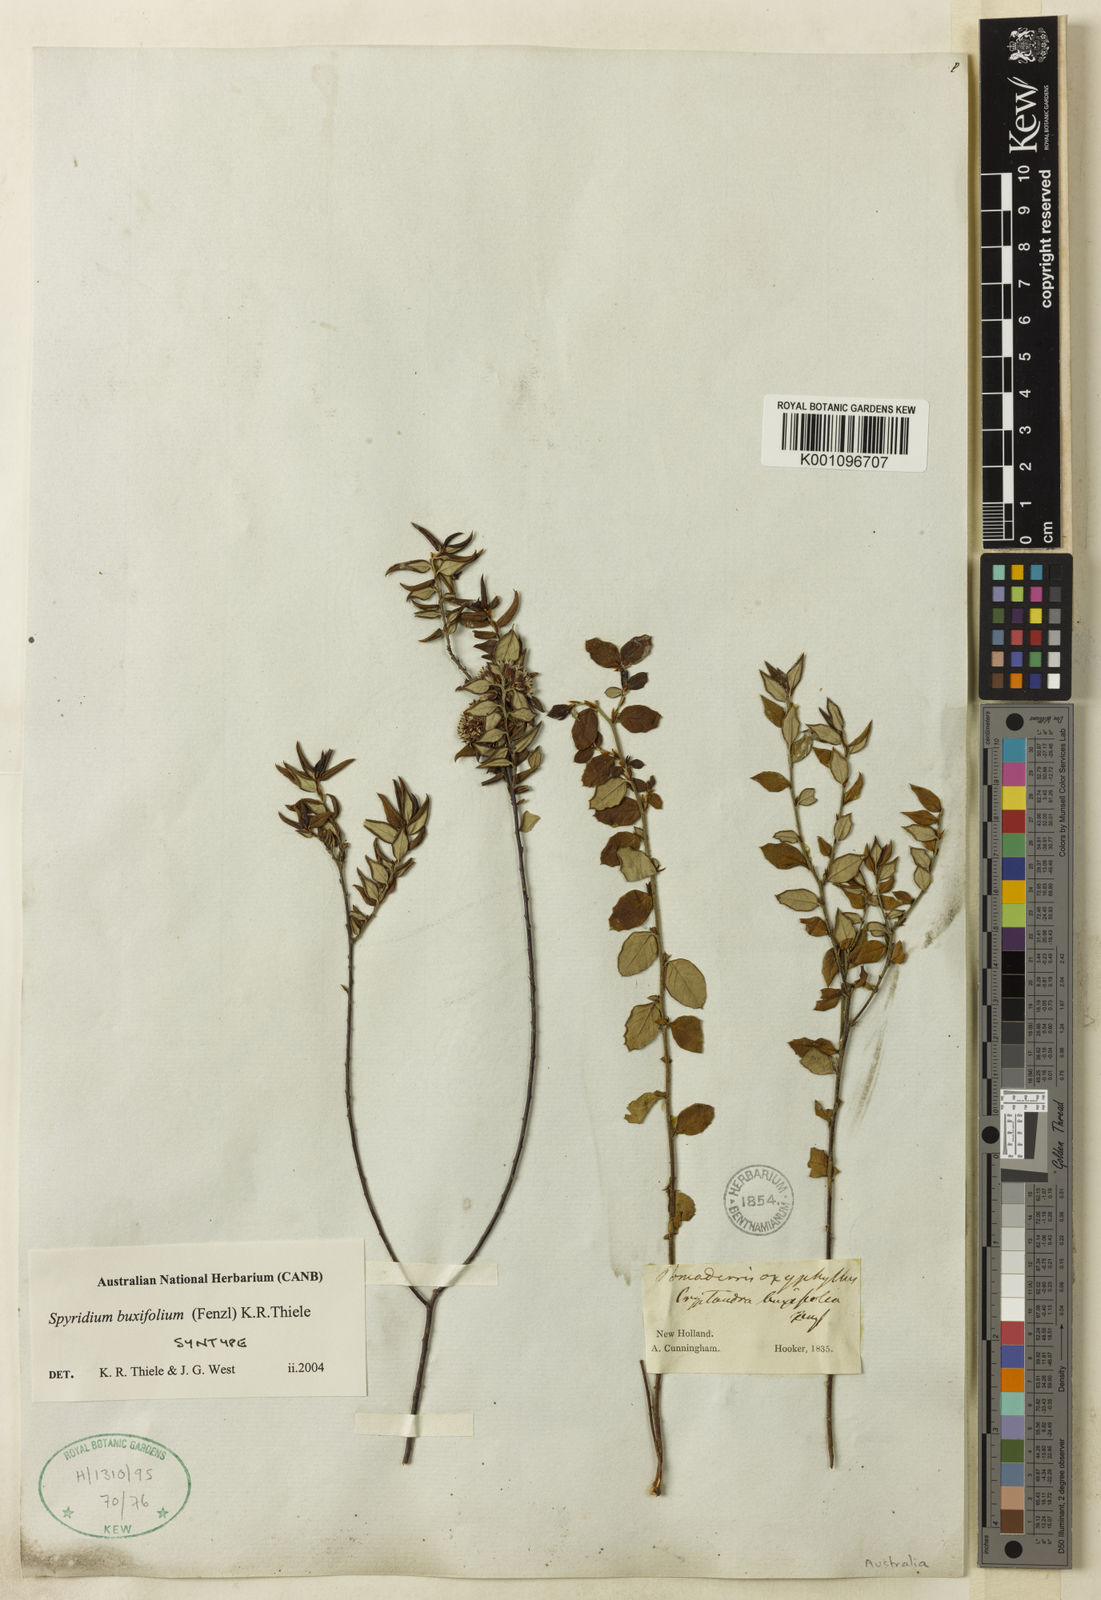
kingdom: Plantae
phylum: Tracheophyta
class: Magnoliopsida
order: Rosales
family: Rhamnaceae
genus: Spyridium
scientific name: Spyridium buxifolium
